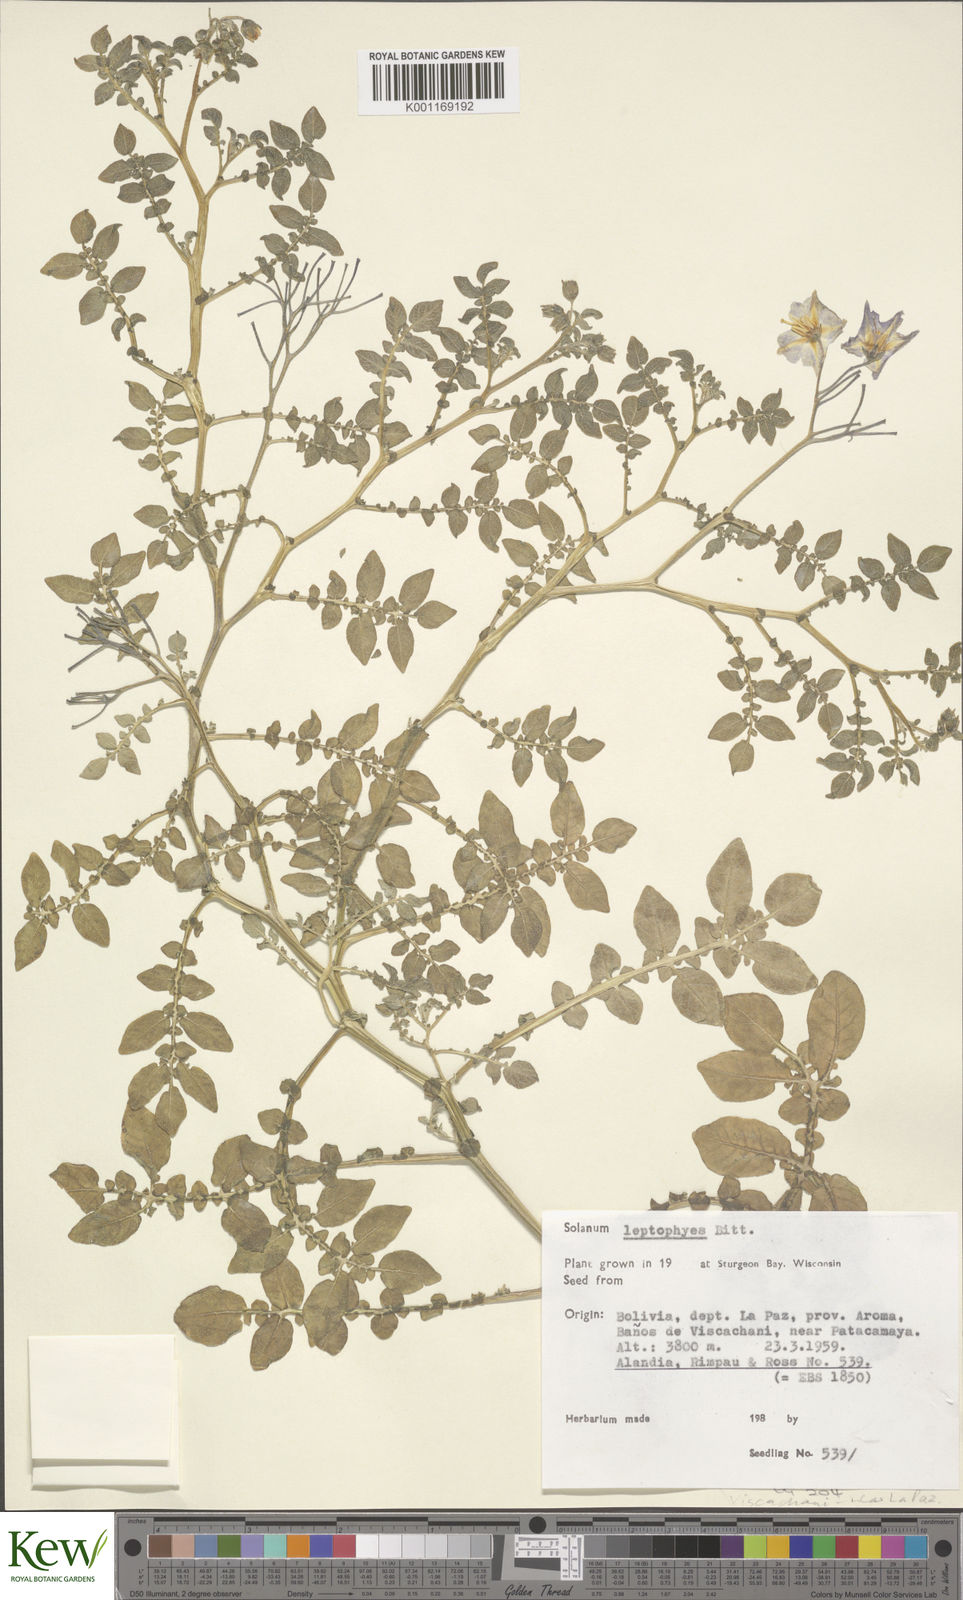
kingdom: Plantae
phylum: Tracheophyta
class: Magnoliopsida
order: Solanales
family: Solanaceae
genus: Solanum
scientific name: Solanum brevicaule
